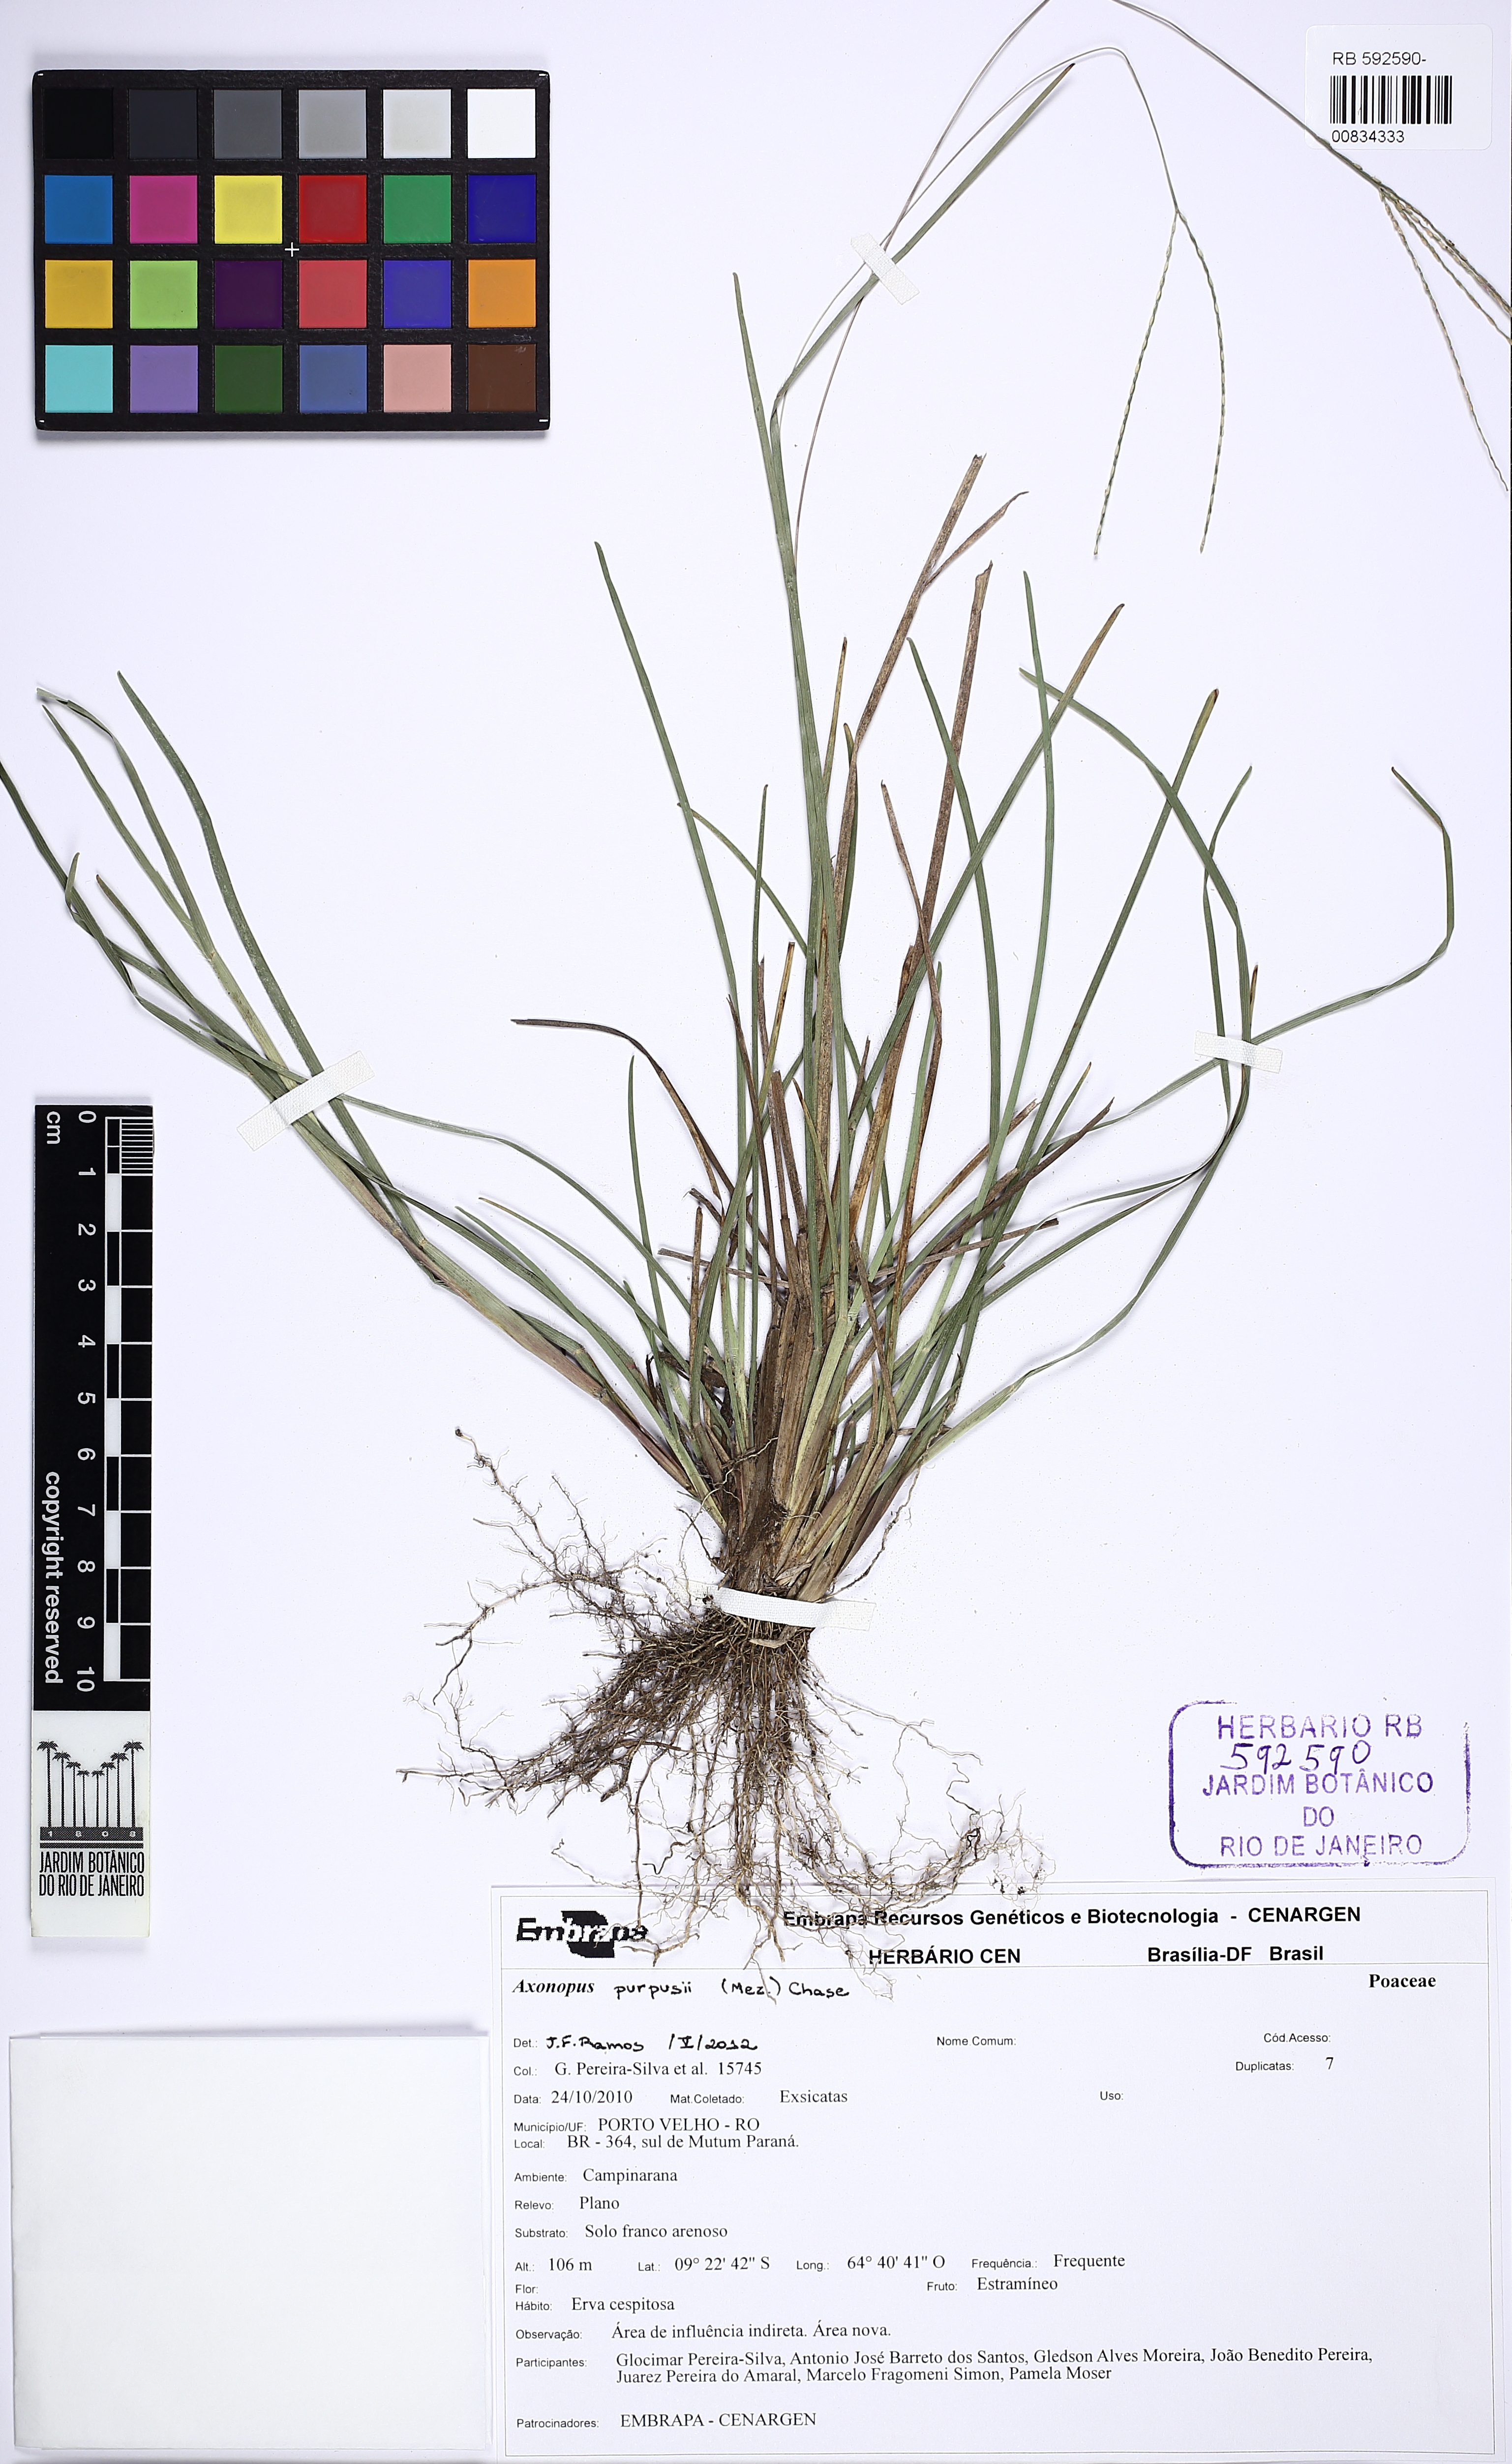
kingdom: Plantae
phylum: Tracheophyta
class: Liliopsida
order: Poales
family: Poaceae
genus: Axonopus
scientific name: Axonopus purpusii
